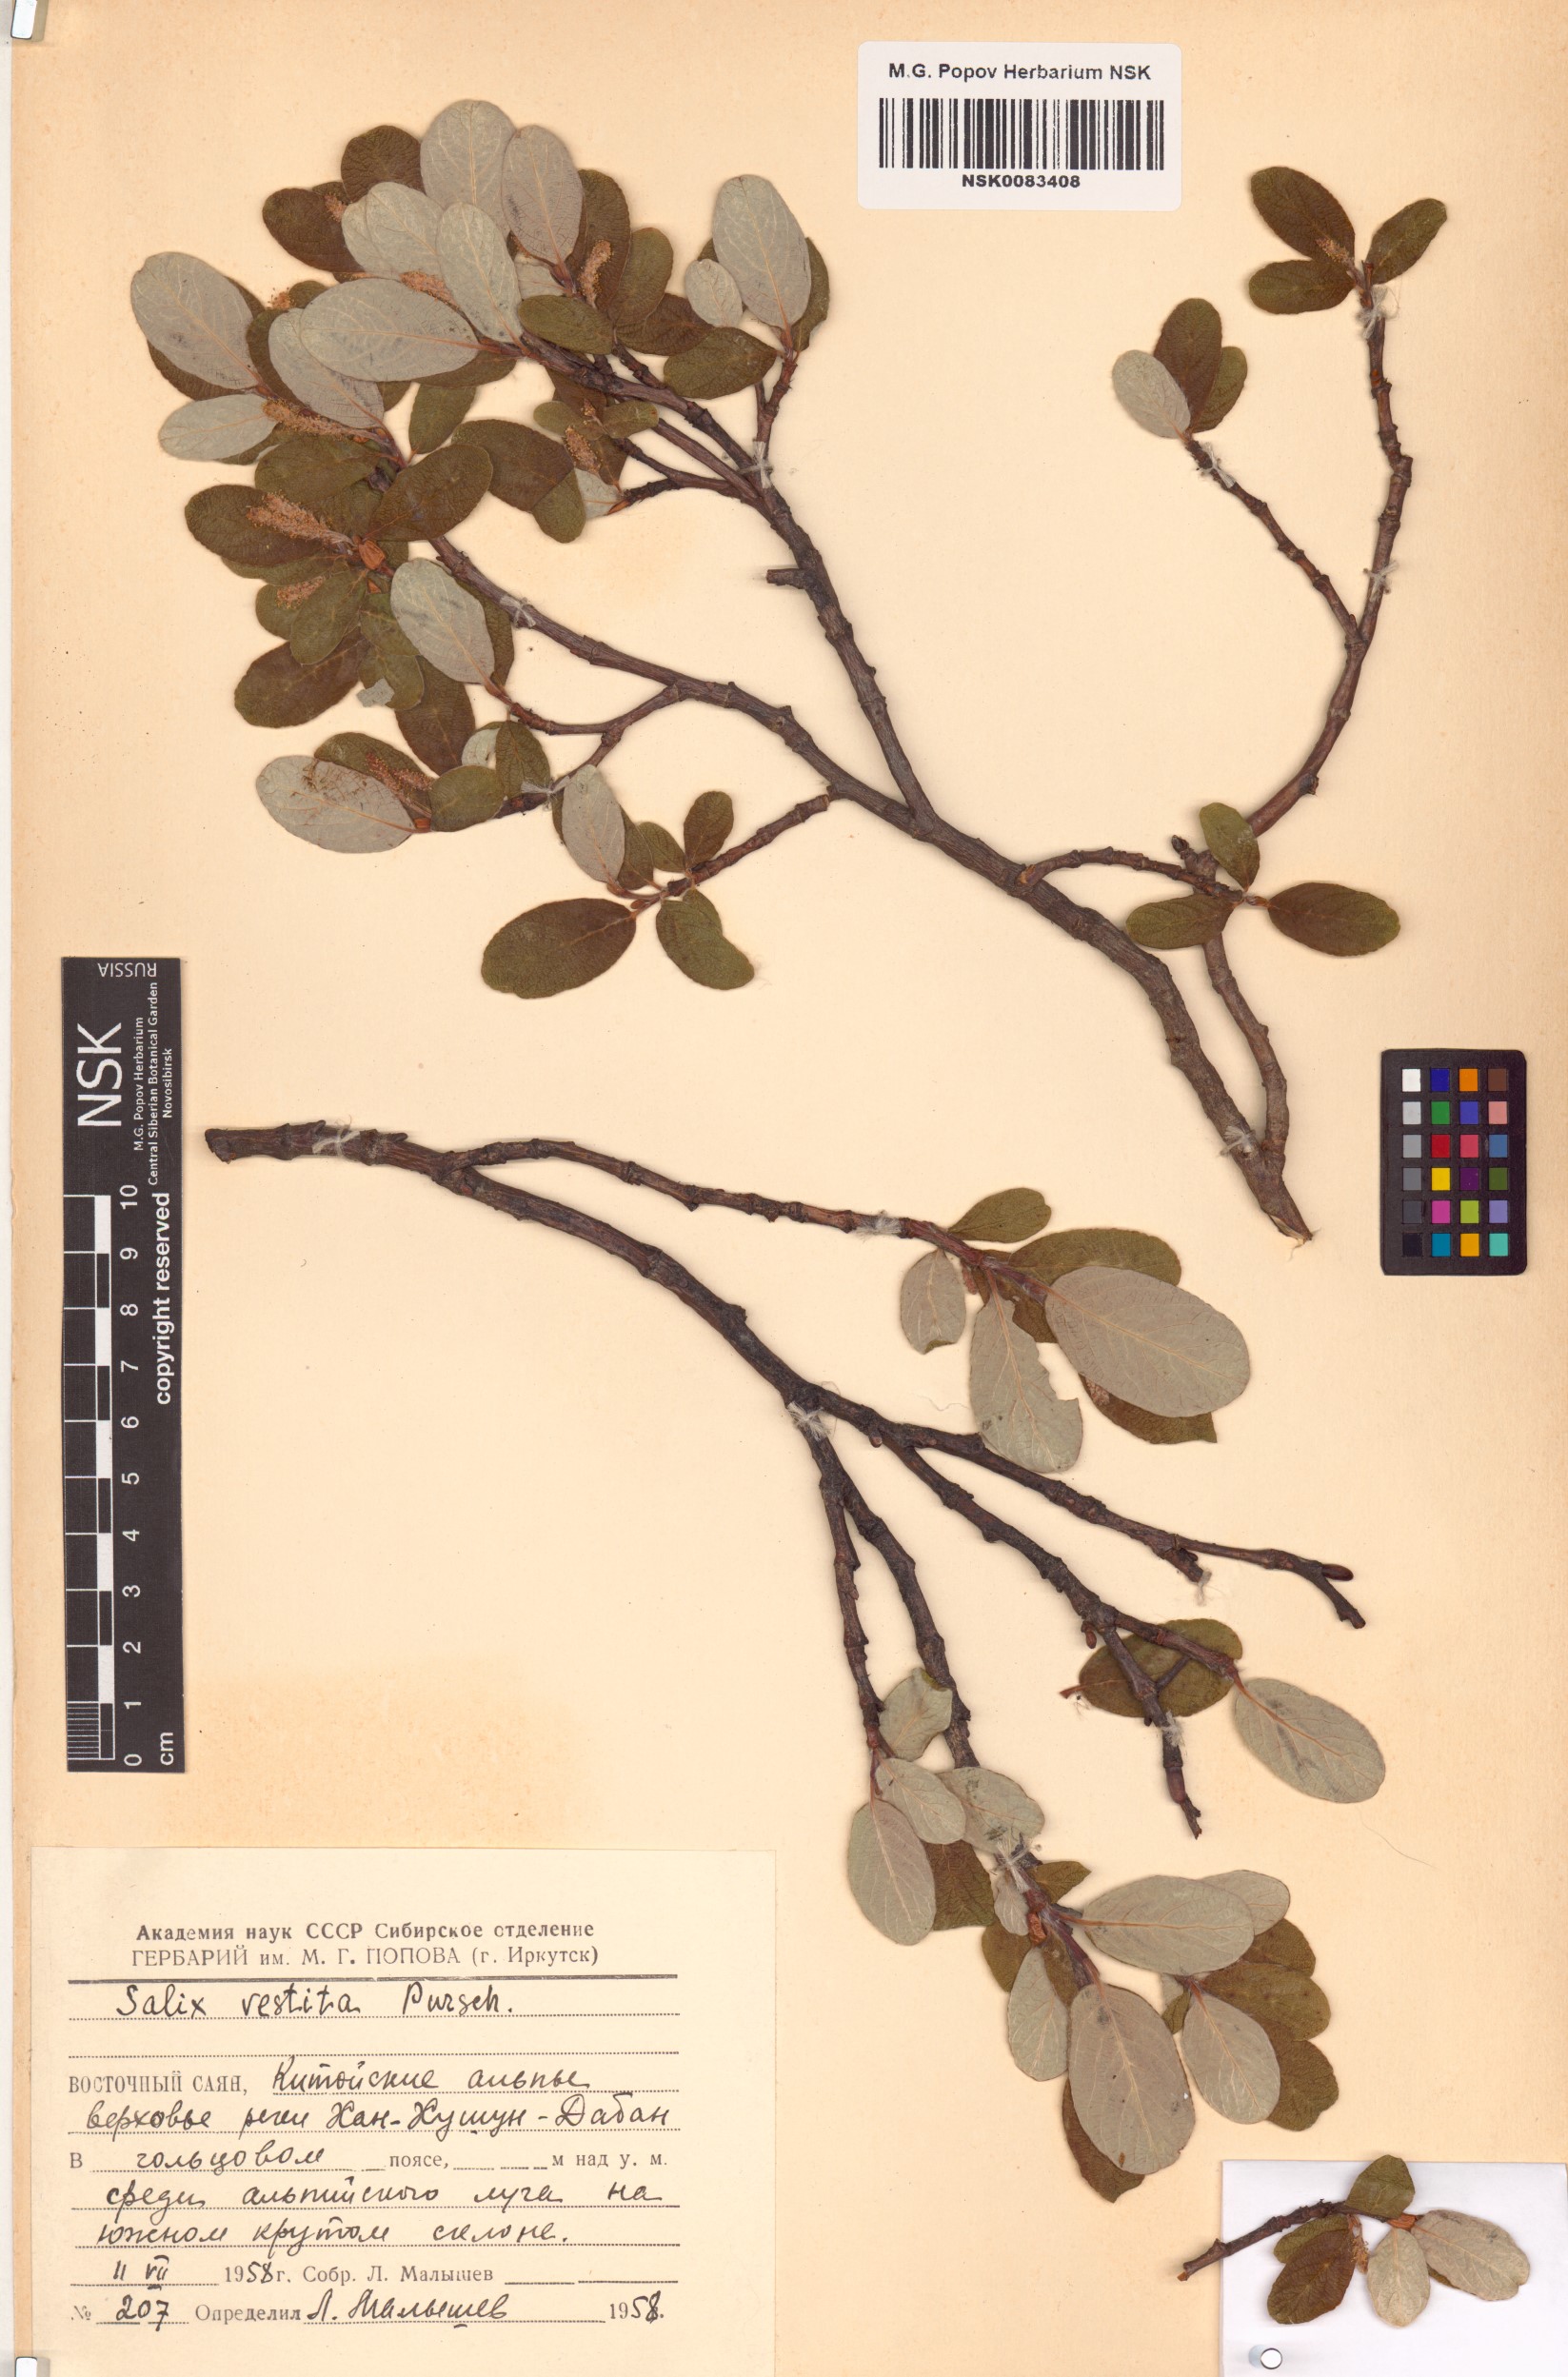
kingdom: Plantae
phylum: Tracheophyta
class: Magnoliopsida
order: Malpighiales
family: Salicaceae
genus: Salix
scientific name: Salix vestita
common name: Hairy willow
